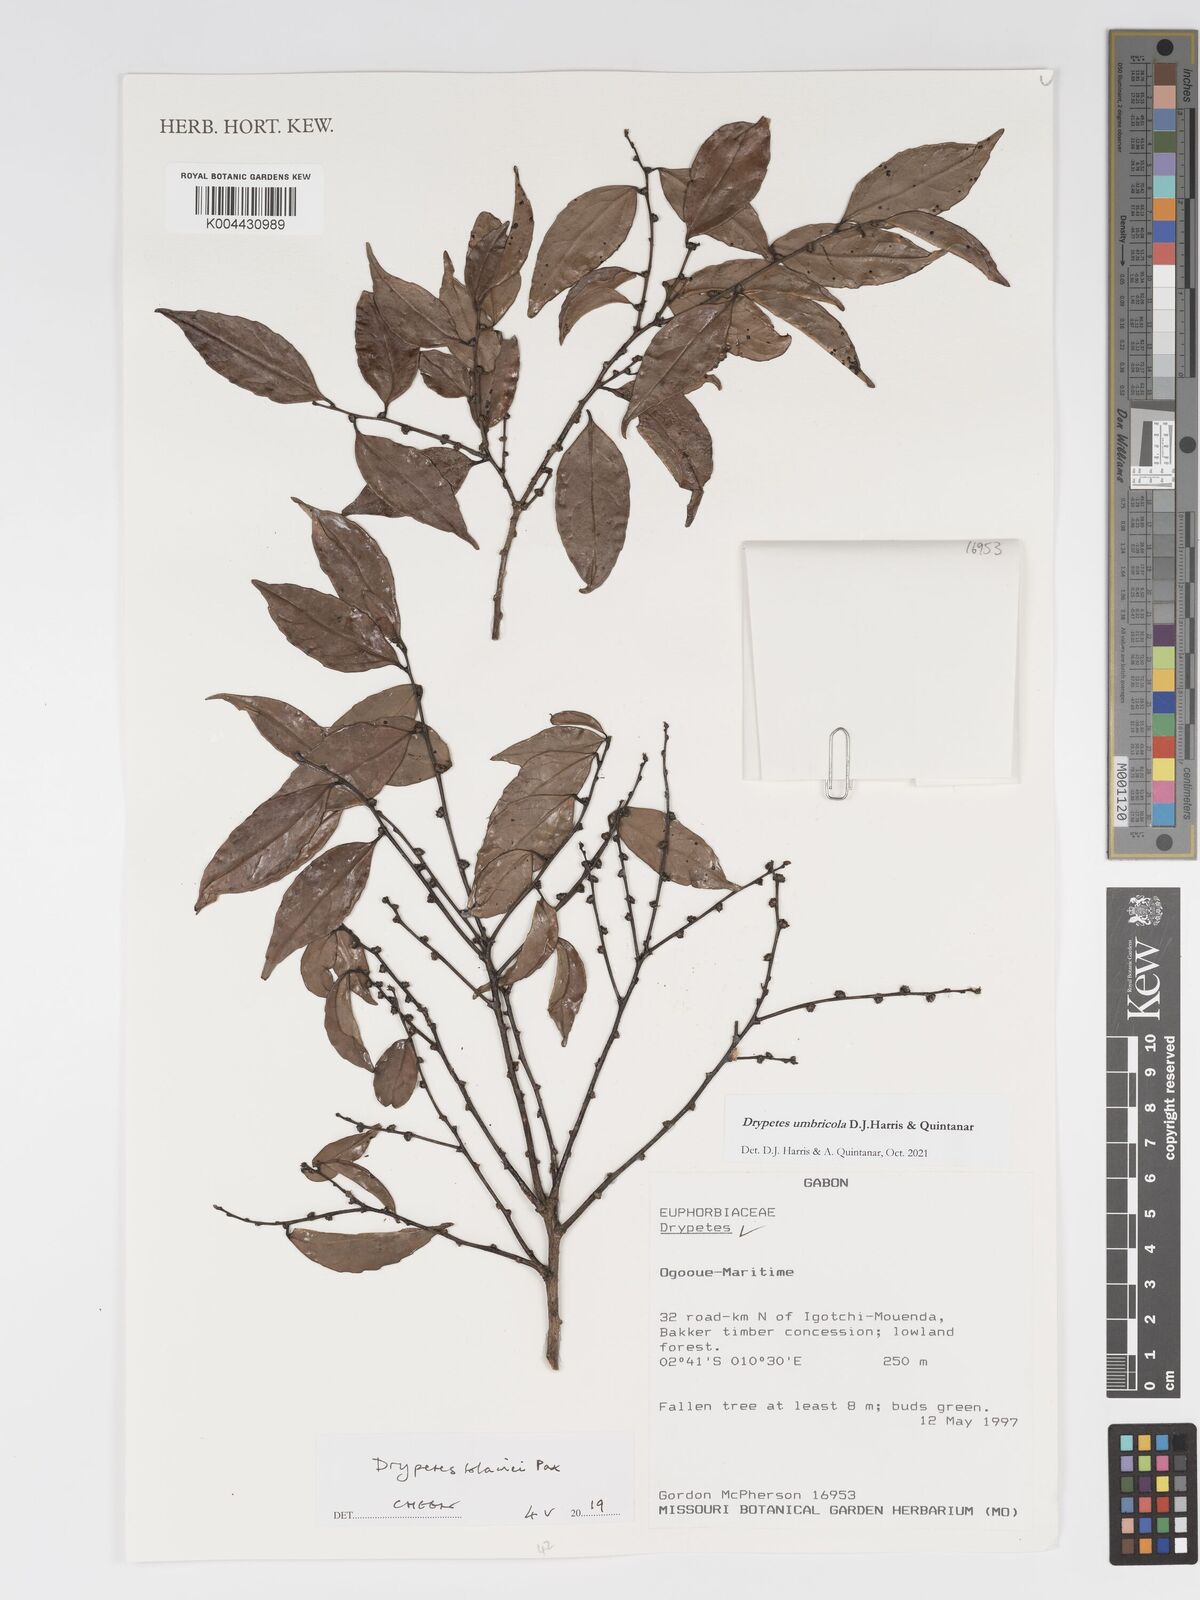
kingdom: Plantae
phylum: Tracheophyta
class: Magnoliopsida
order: Malpighiales
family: Putranjivaceae
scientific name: Putranjivaceae
